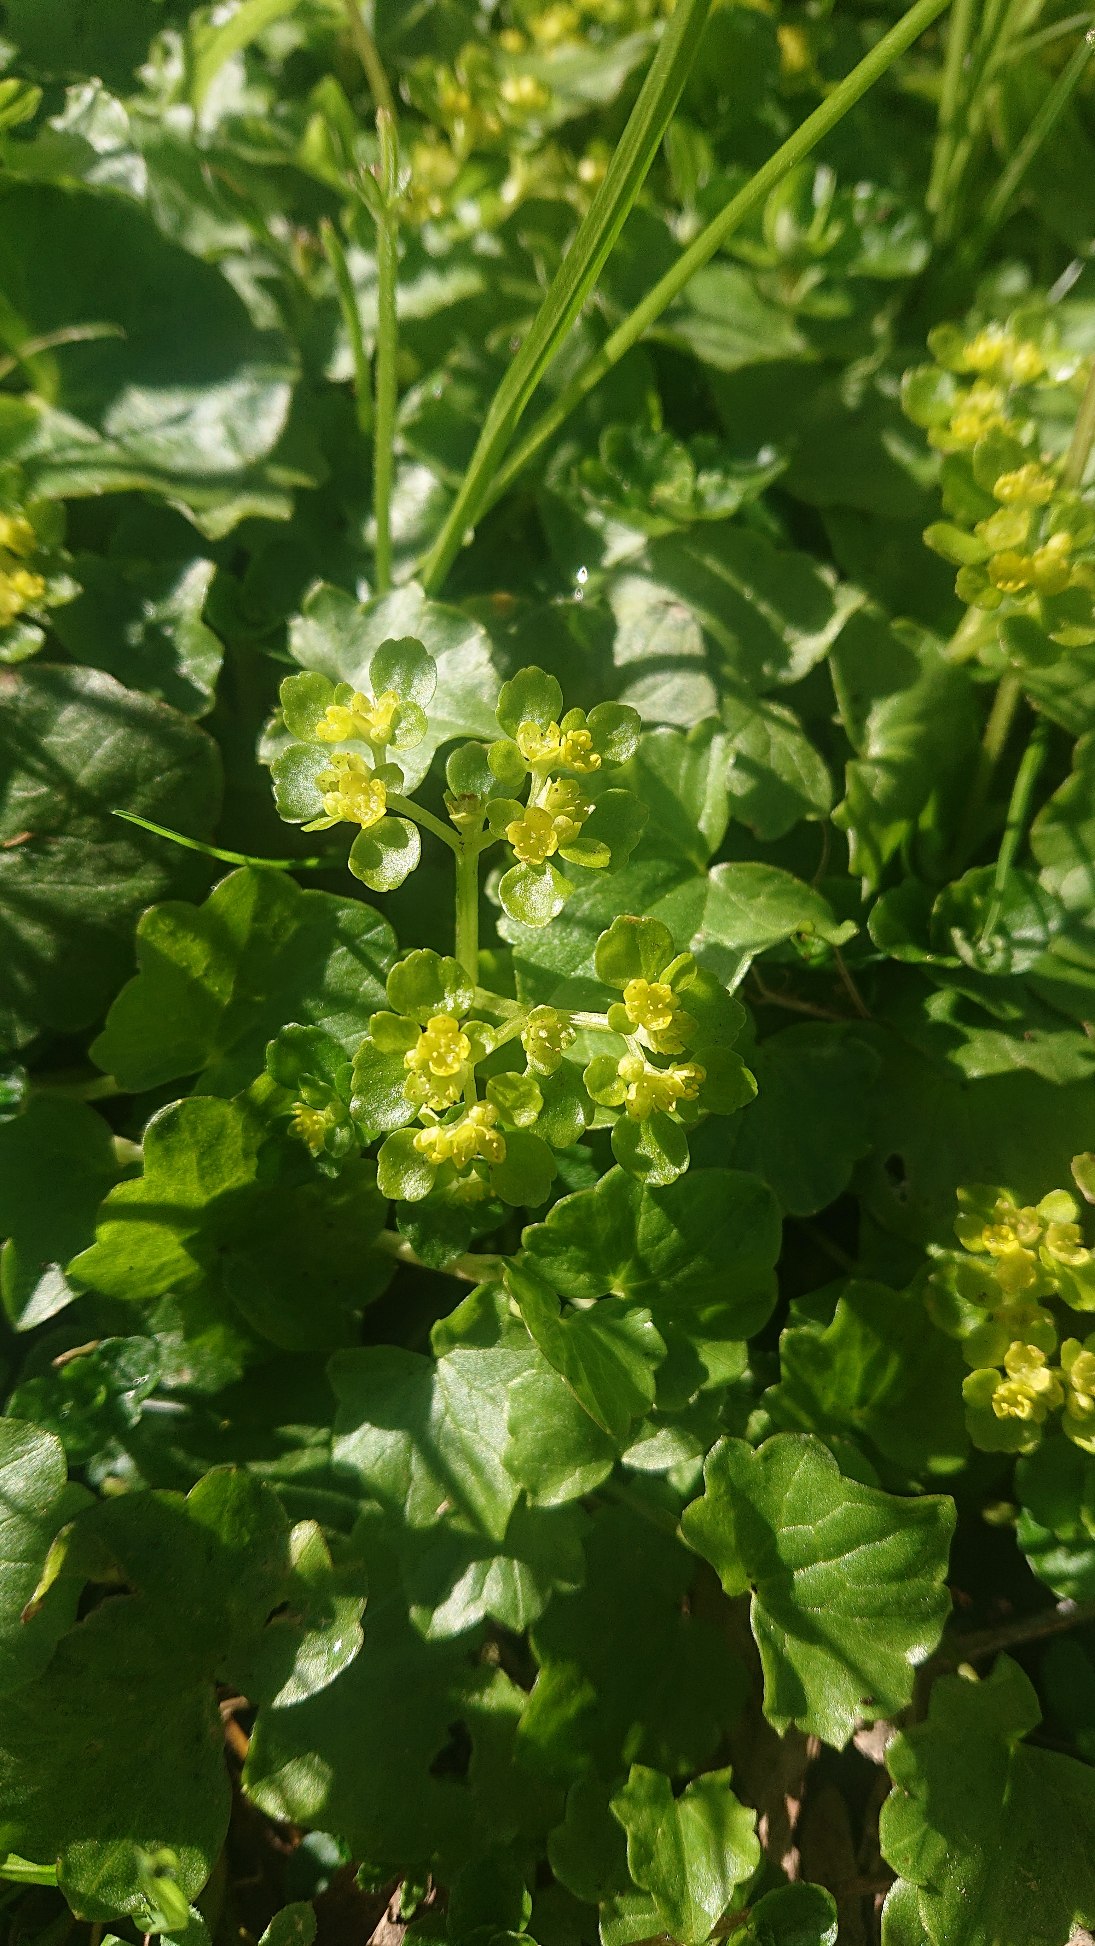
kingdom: Plantae
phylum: Tracheophyta
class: Magnoliopsida
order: Saxifragales
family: Saxifragaceae
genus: Chrysosplenium
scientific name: Chrysosplenium oppositifolium
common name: Småbladet milturt
